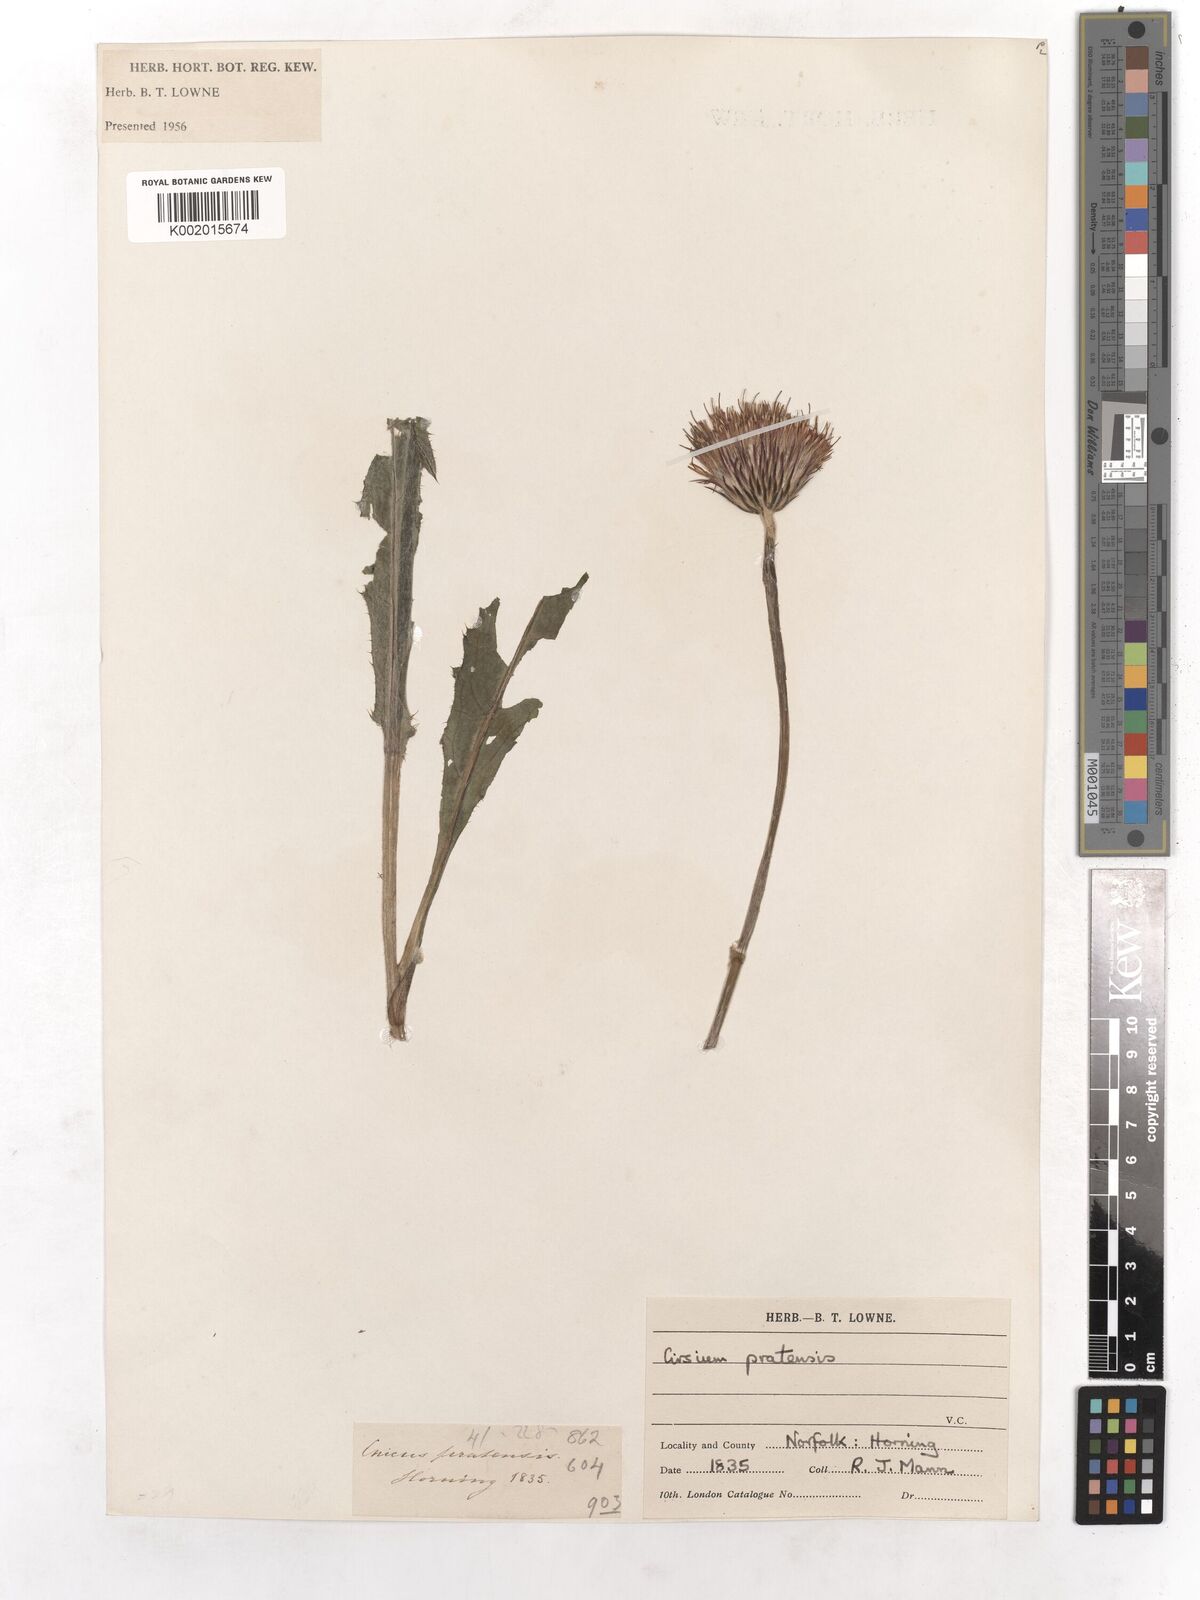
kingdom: Plantae
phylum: Tracheophyta
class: Magnoliopsida
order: Asterales
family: Asteraceae
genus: Cirsium
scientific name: Cirsium dissectum
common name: Meadow thistle
